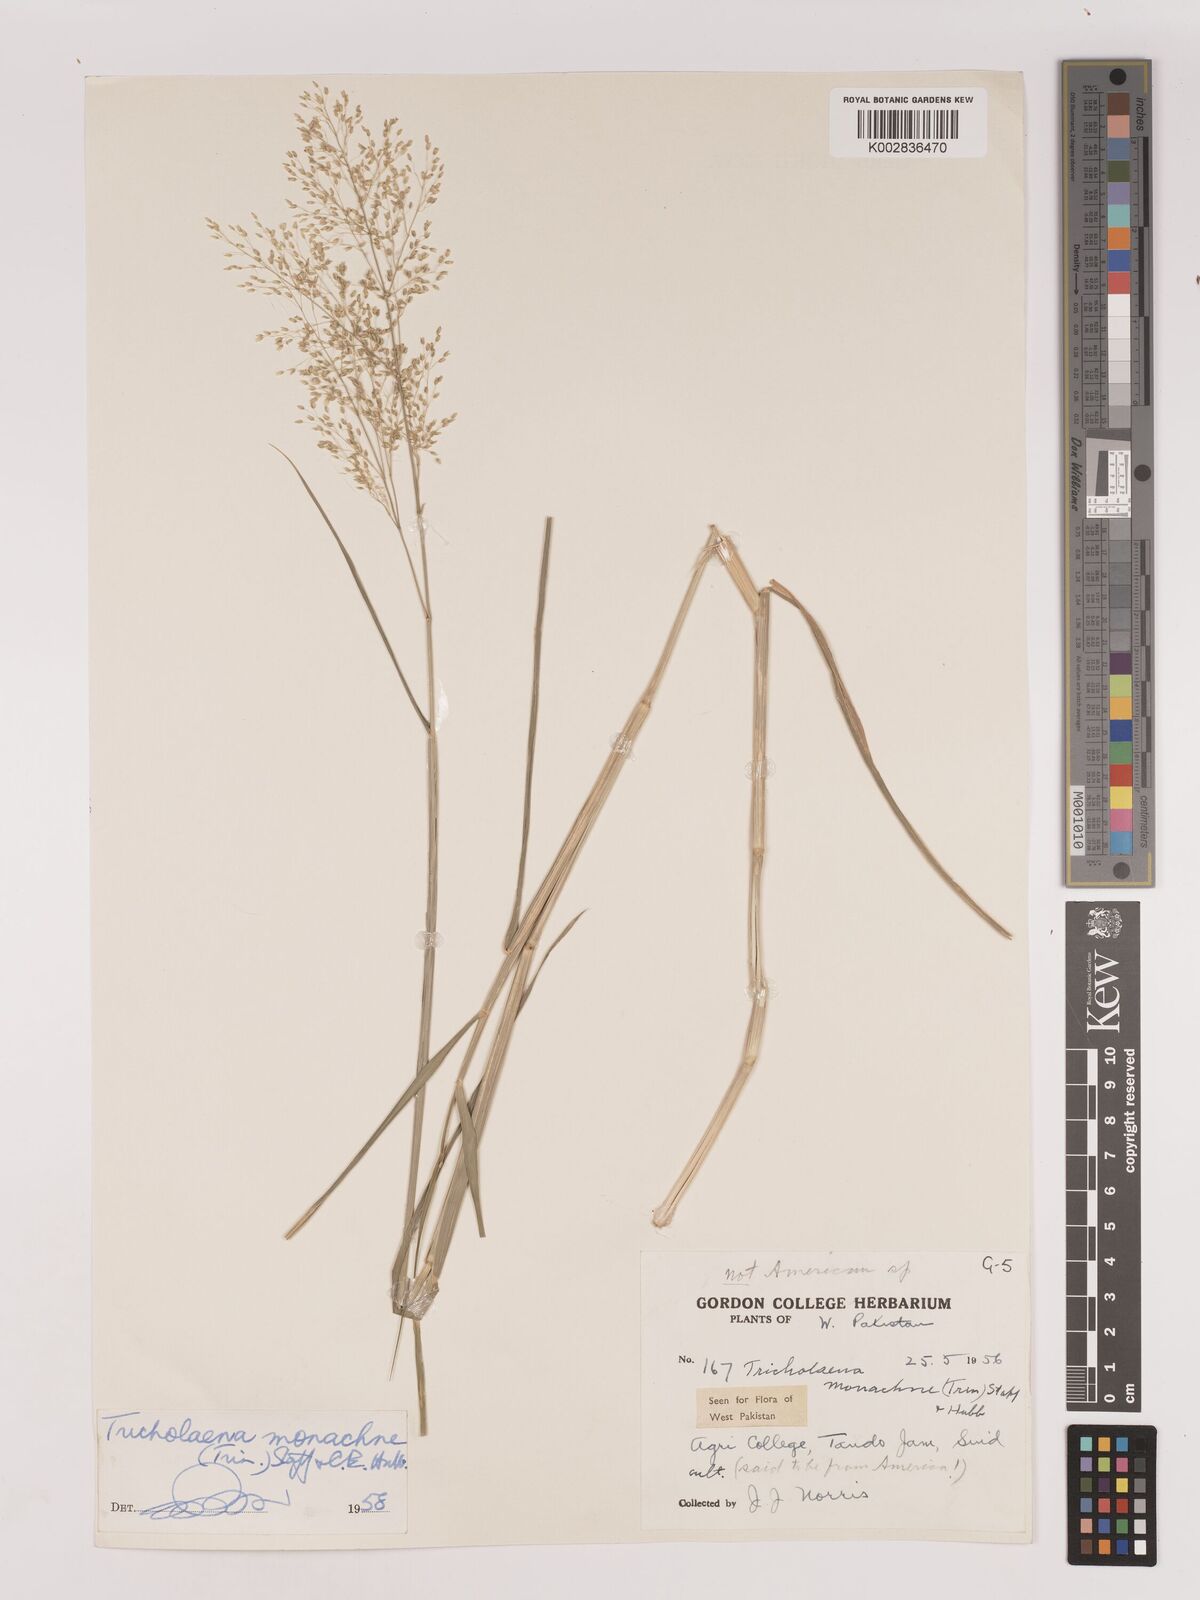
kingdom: Plantae
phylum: Tracheophyta
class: Liliopsida
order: Poales
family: Poaceae
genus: Tricholaena
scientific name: Tricholaena monachne
